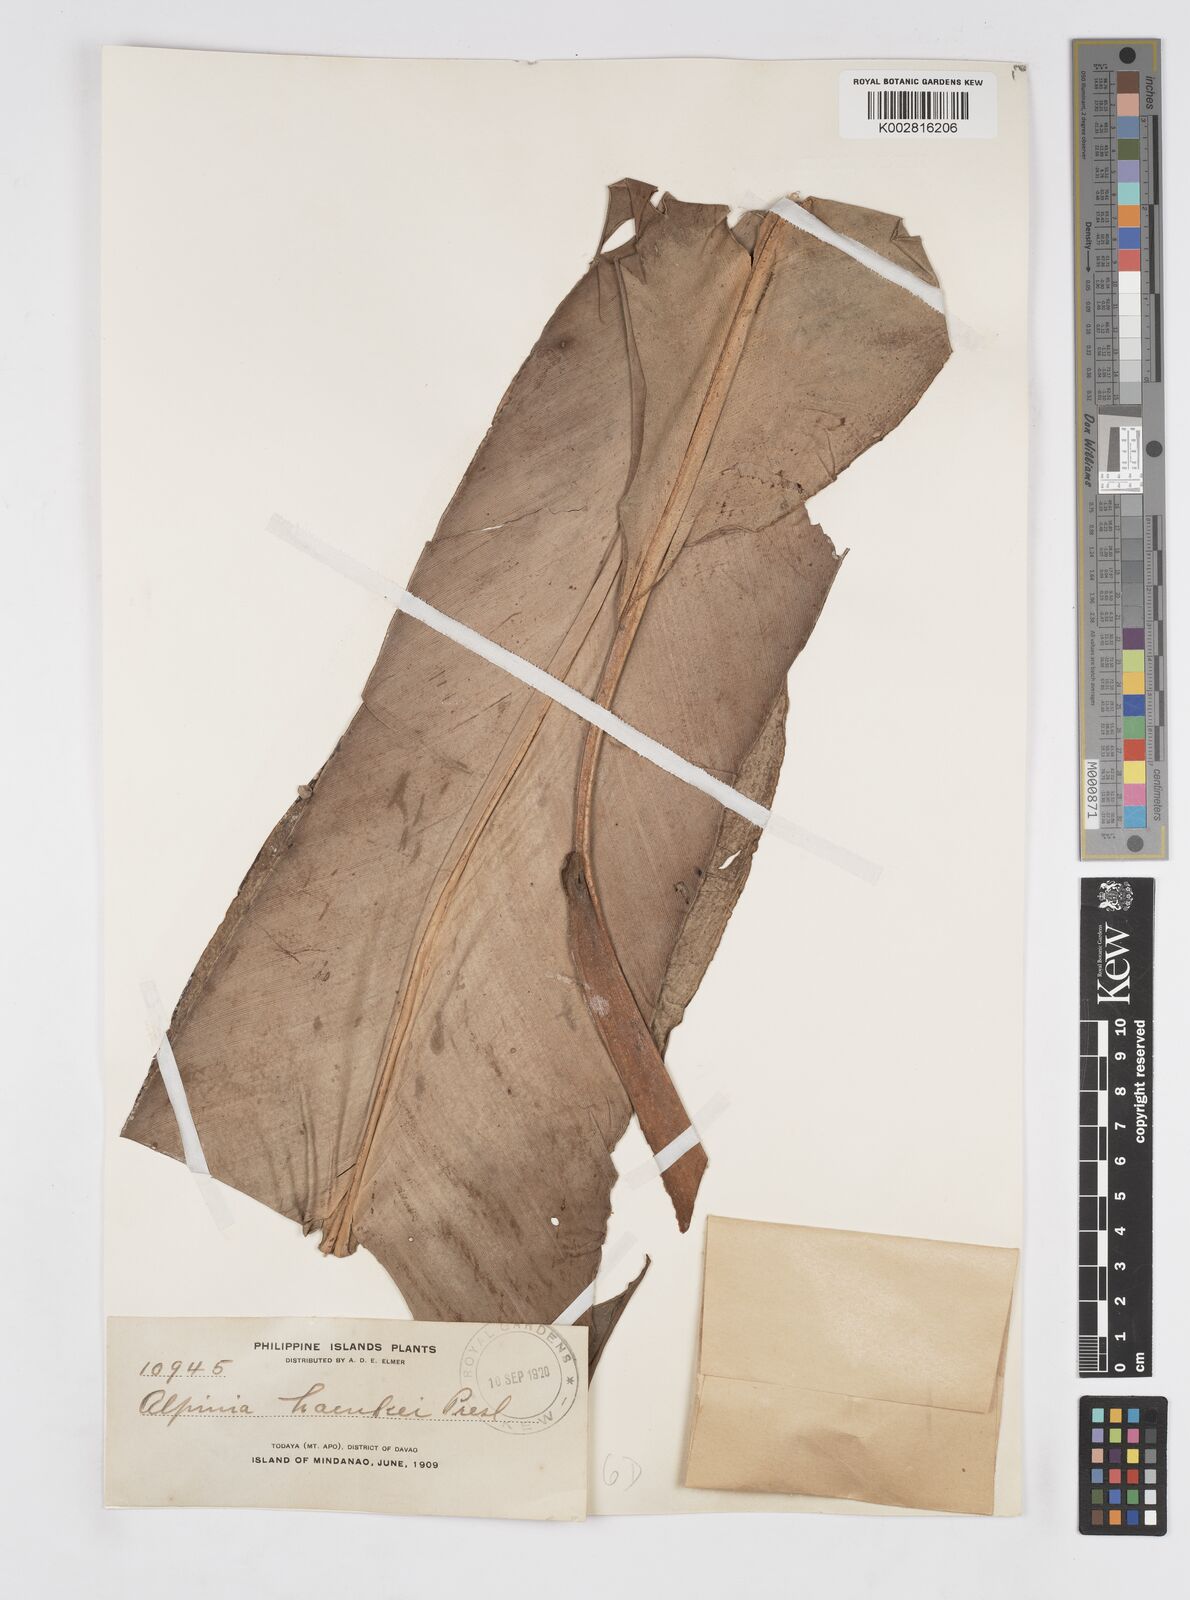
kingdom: Plantae
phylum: Tracheophyta
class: Liliopsida
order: Zingiberales
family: Zingiberaceae
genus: Alpinia
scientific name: Alpinia haenkei
